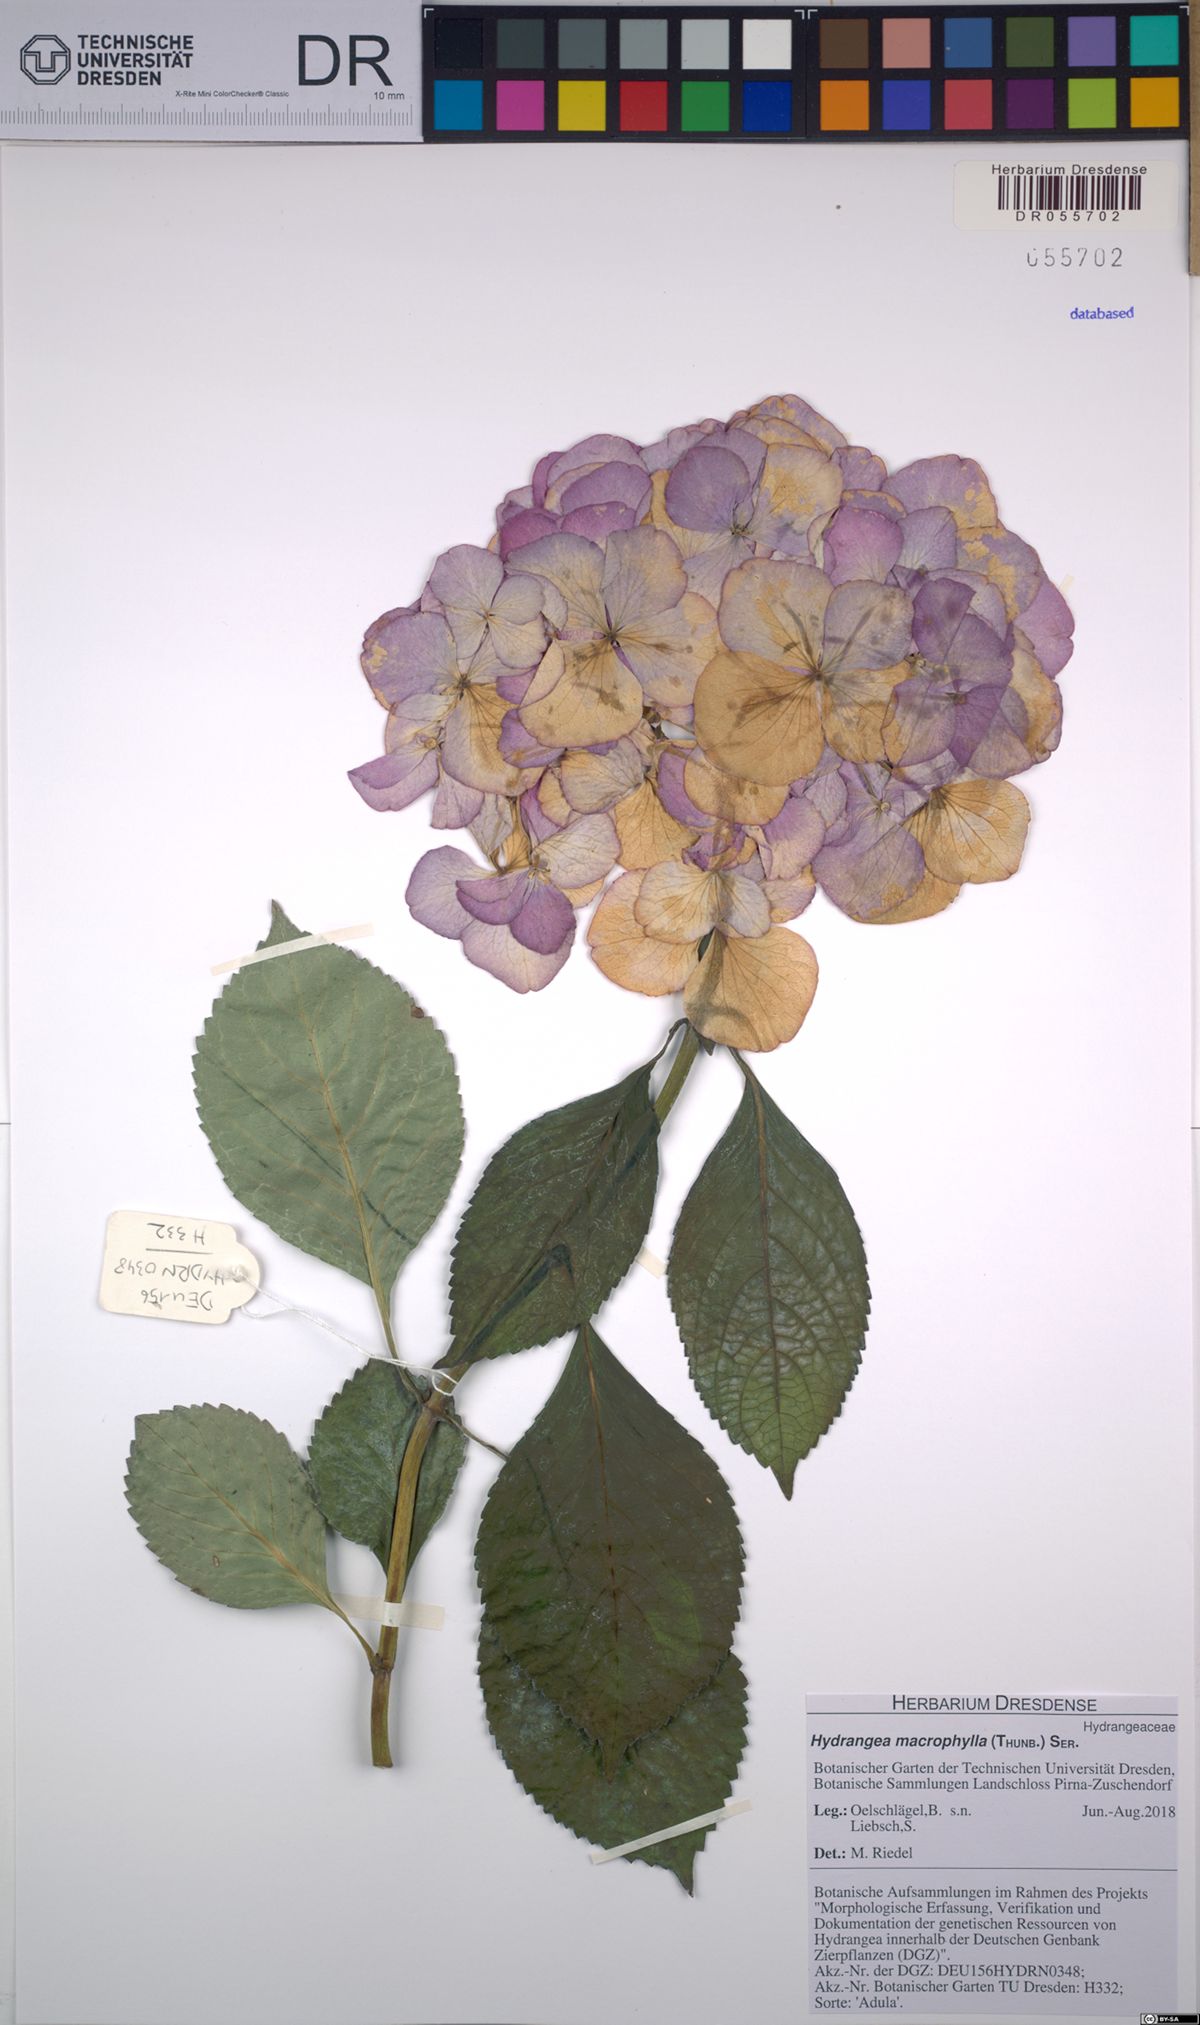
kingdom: Plantae
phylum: Tracheophyta
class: Magnoliopsida
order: Cornales
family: Hydrangeaceae
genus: Hydrangea
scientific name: Hydrangea macrophylla
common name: Hydrangea
